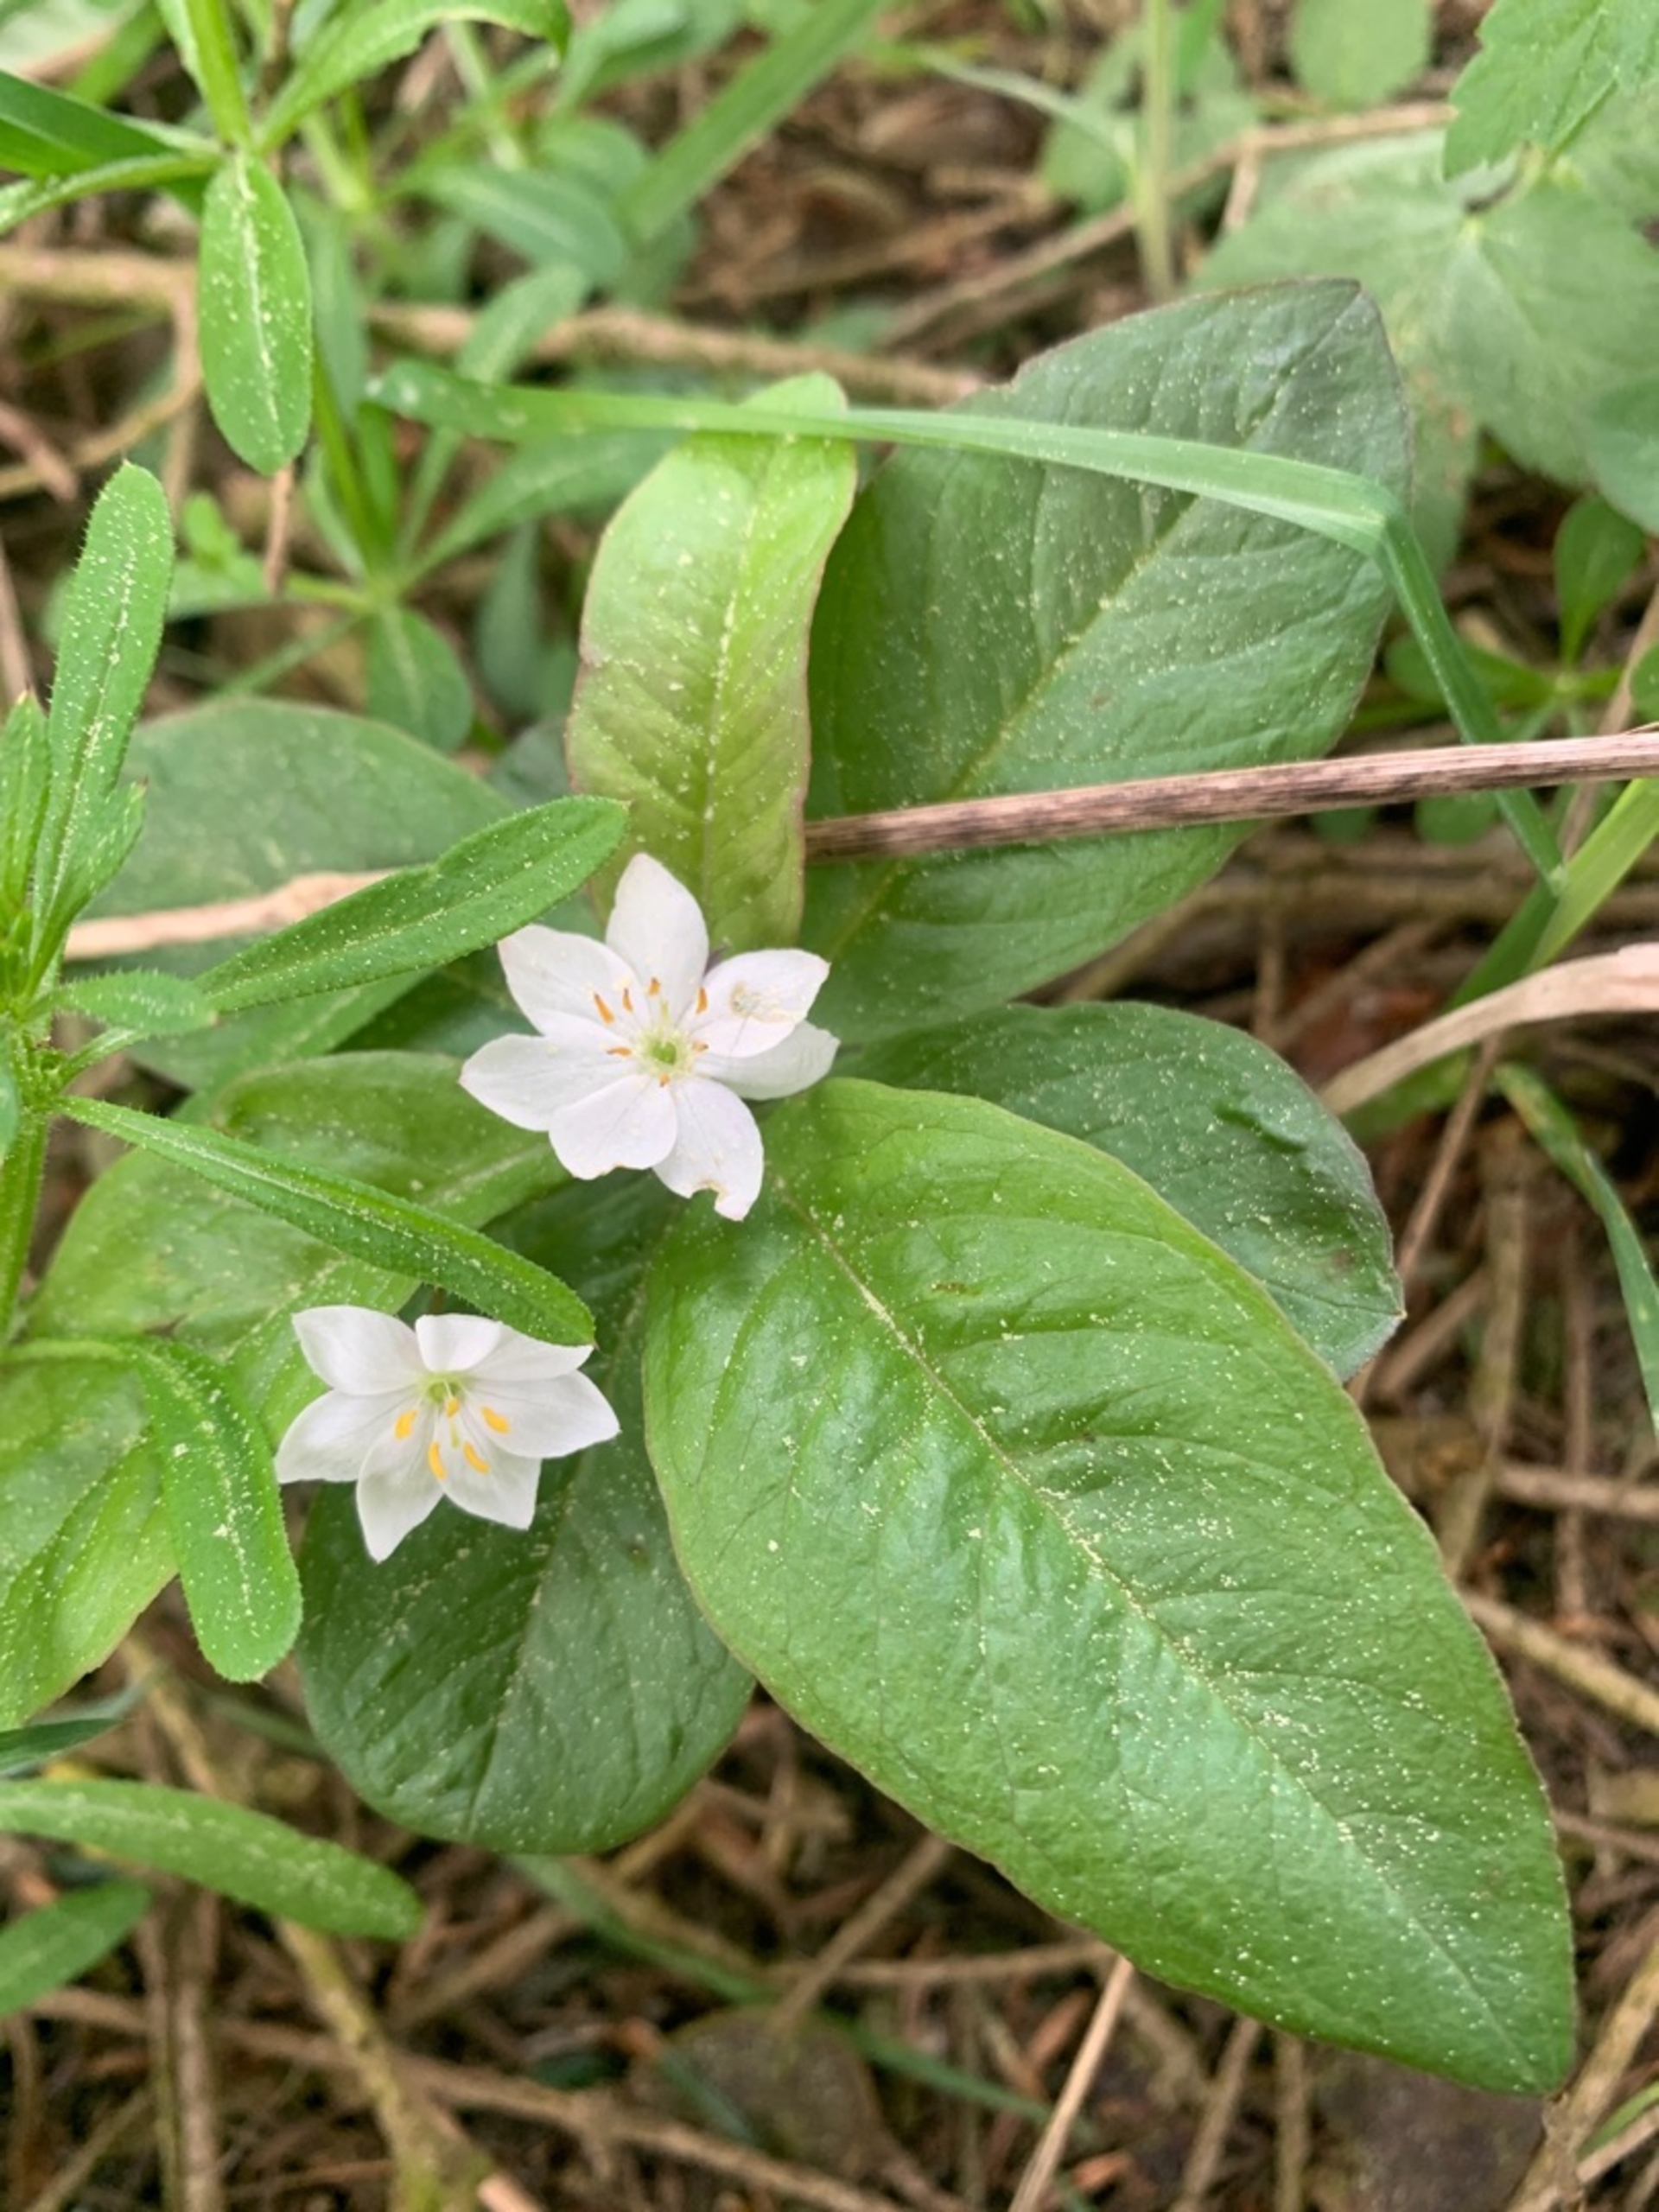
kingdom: Plantae
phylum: Tracheophyta
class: Magnoliopsida
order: Ericales
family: Primulaceae
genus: Lysimachia
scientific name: Lysimachia europaea
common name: Skovstjerne
